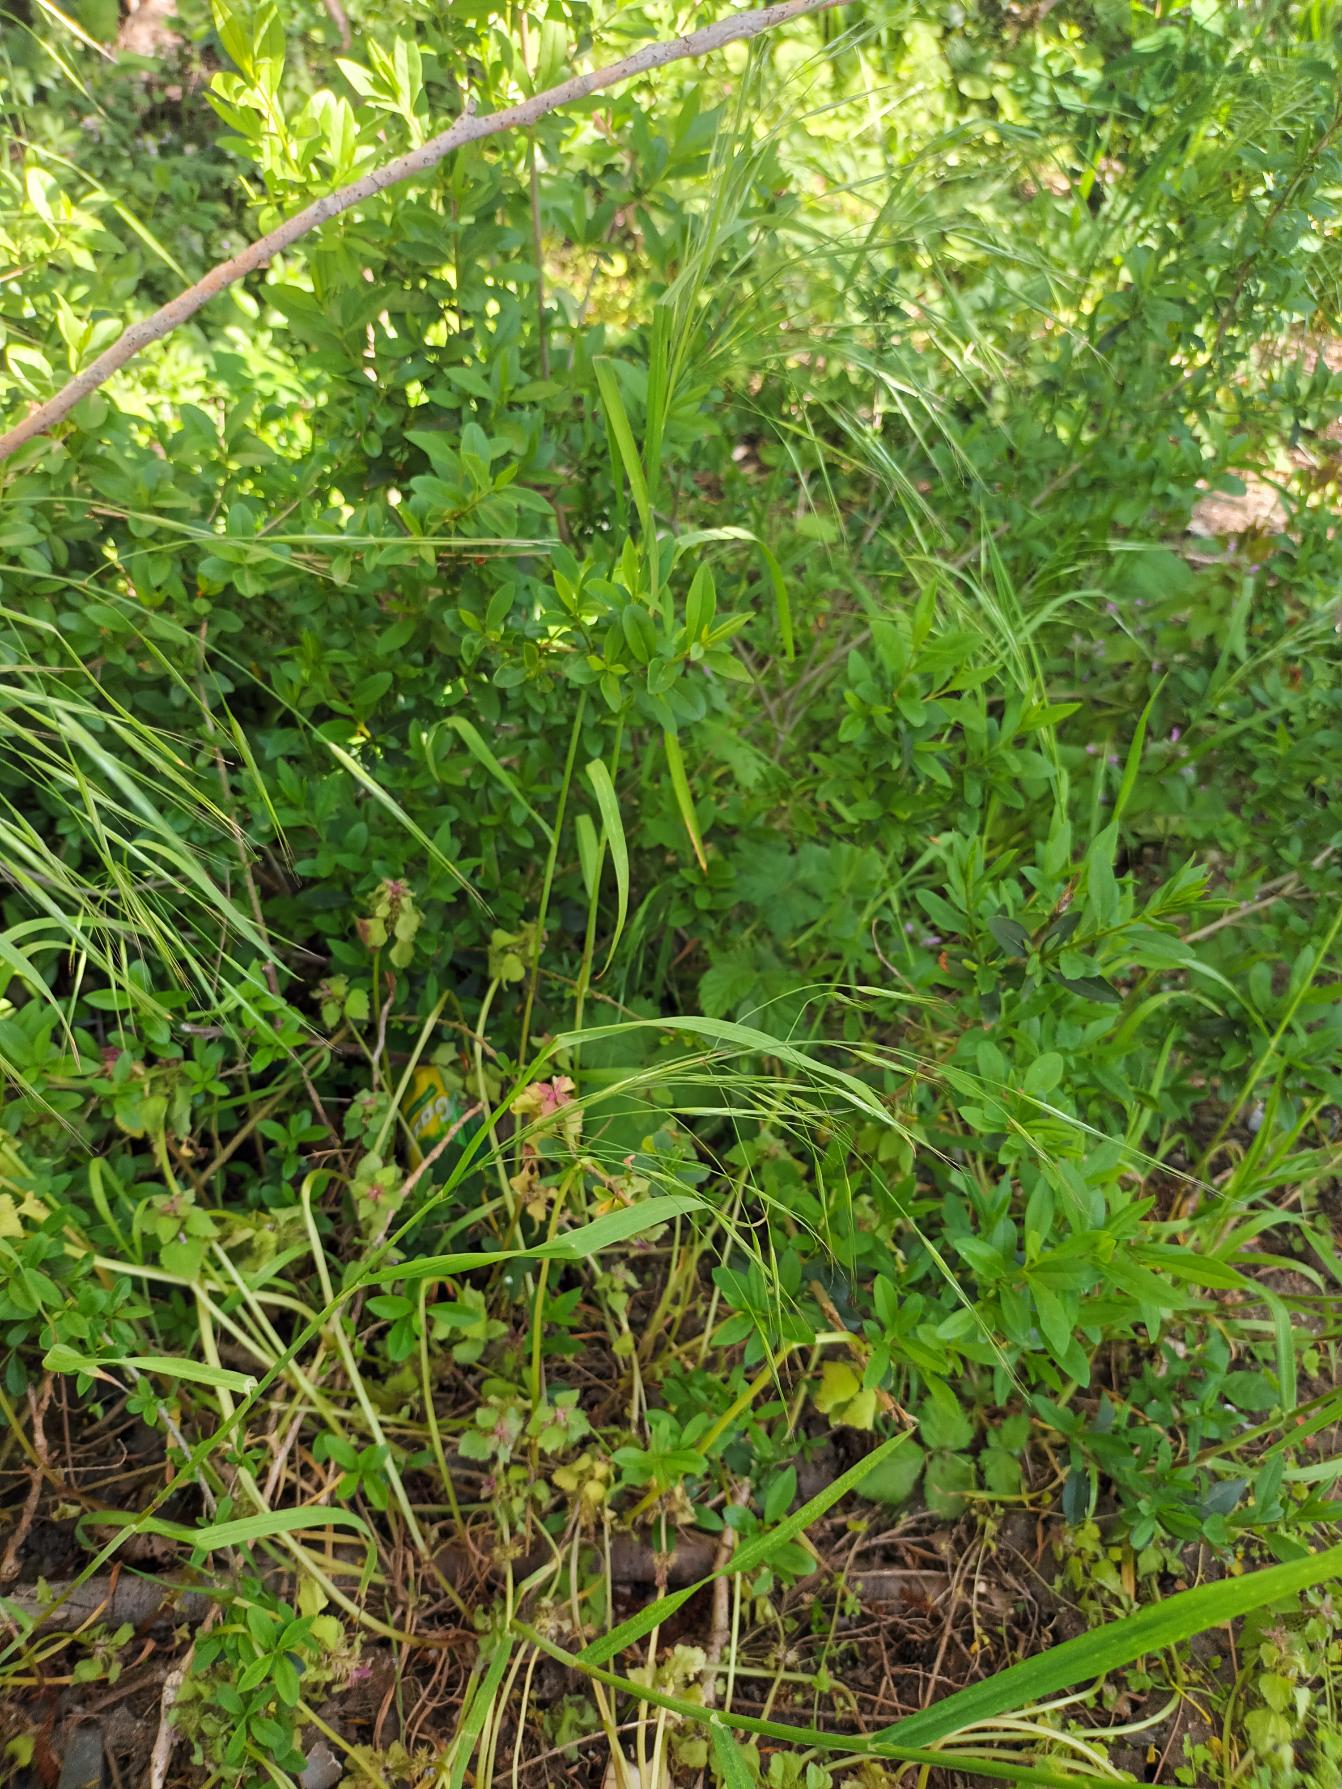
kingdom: Plantae
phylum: Tracheophyta
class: Liliopsida
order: Poales
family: Poaceae
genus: Bromus
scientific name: Bromus sterilis
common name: Gold hejre
